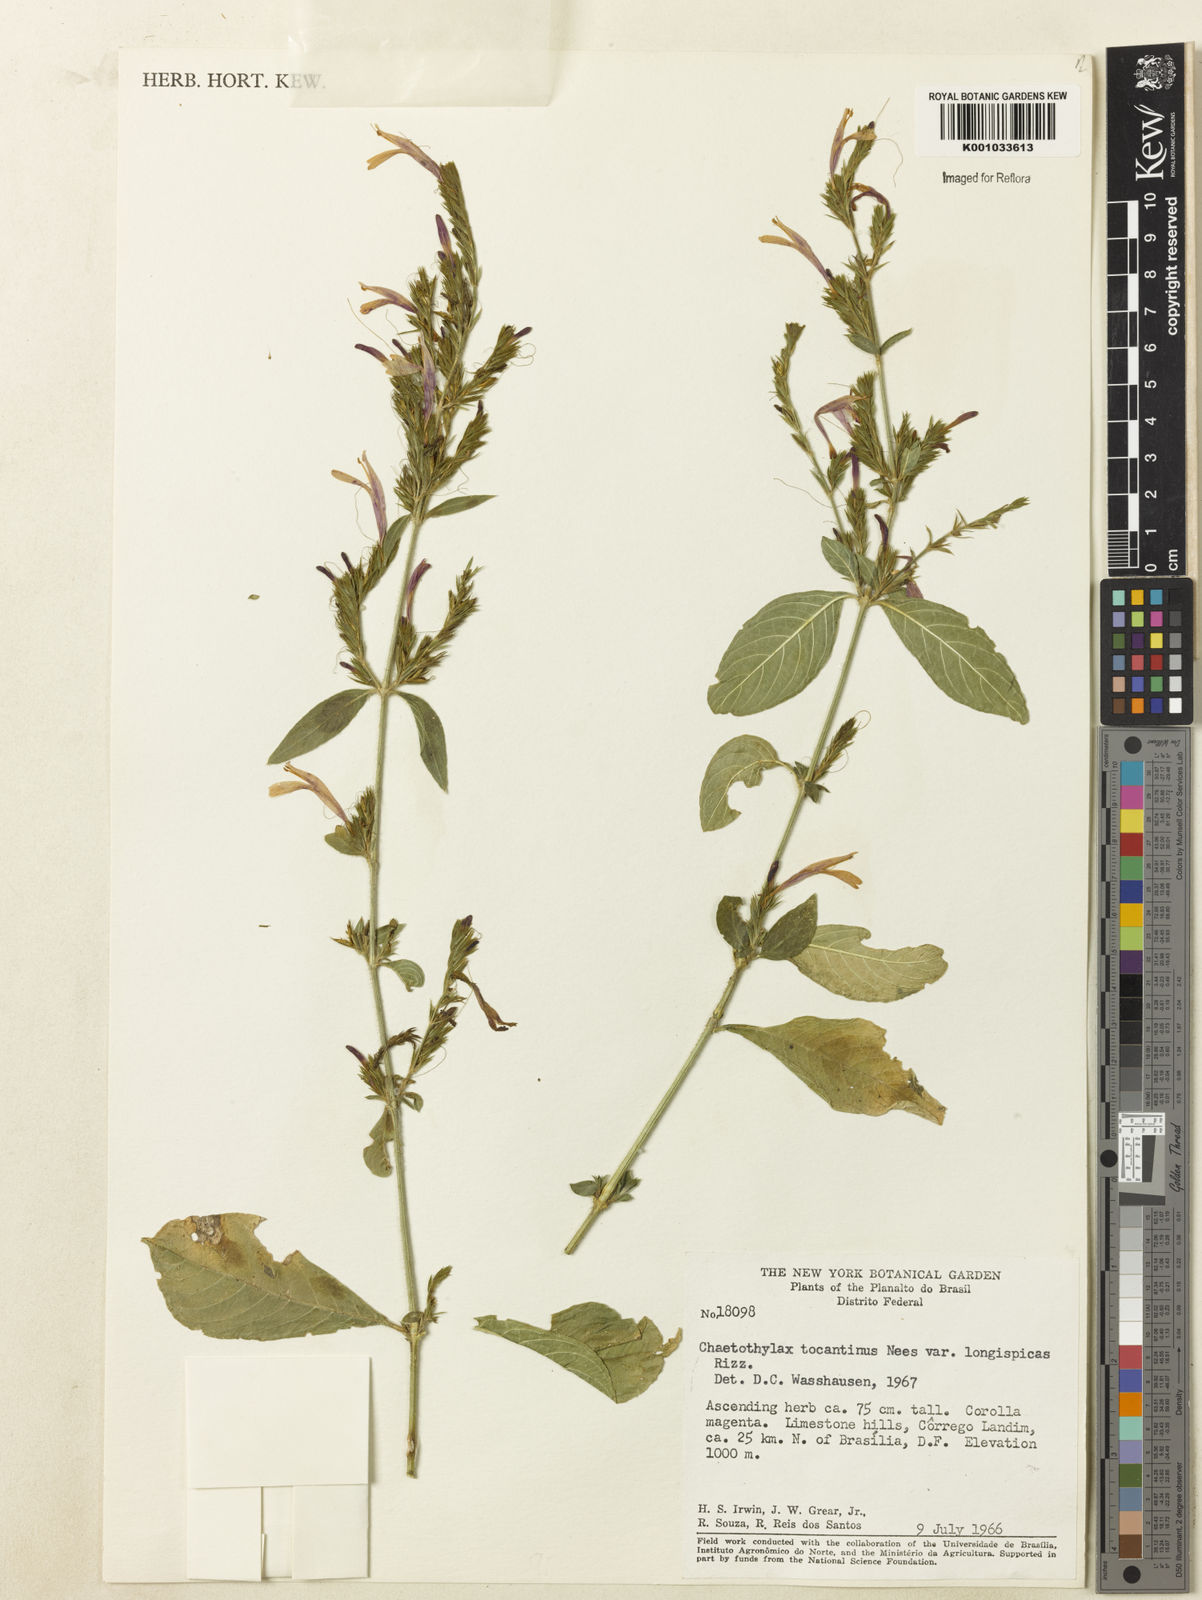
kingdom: Plantae
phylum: Tracheophyta
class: Magnoliopsida
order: Lamiales
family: Acanthaceae
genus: Justicia
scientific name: Justicia tocantina
